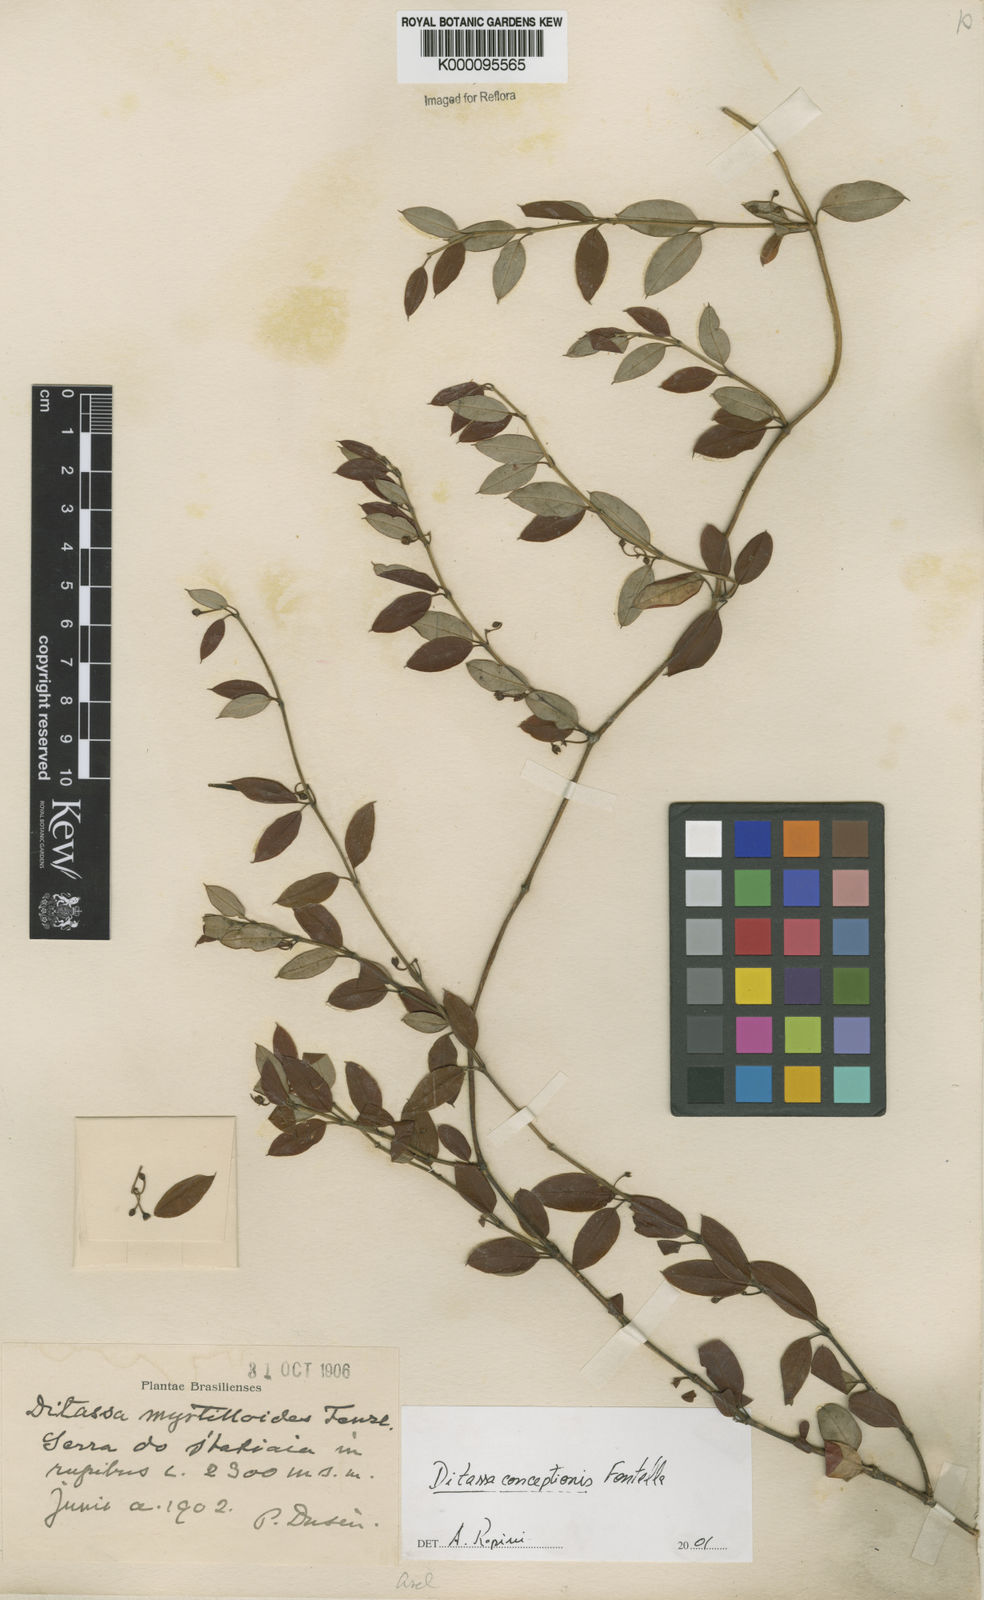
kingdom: Plantae
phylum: Tracheophyta
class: Magnoliopsida
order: Gentianales
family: Apocynaceae
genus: Ditassa
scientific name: Ditassa conceptionis
